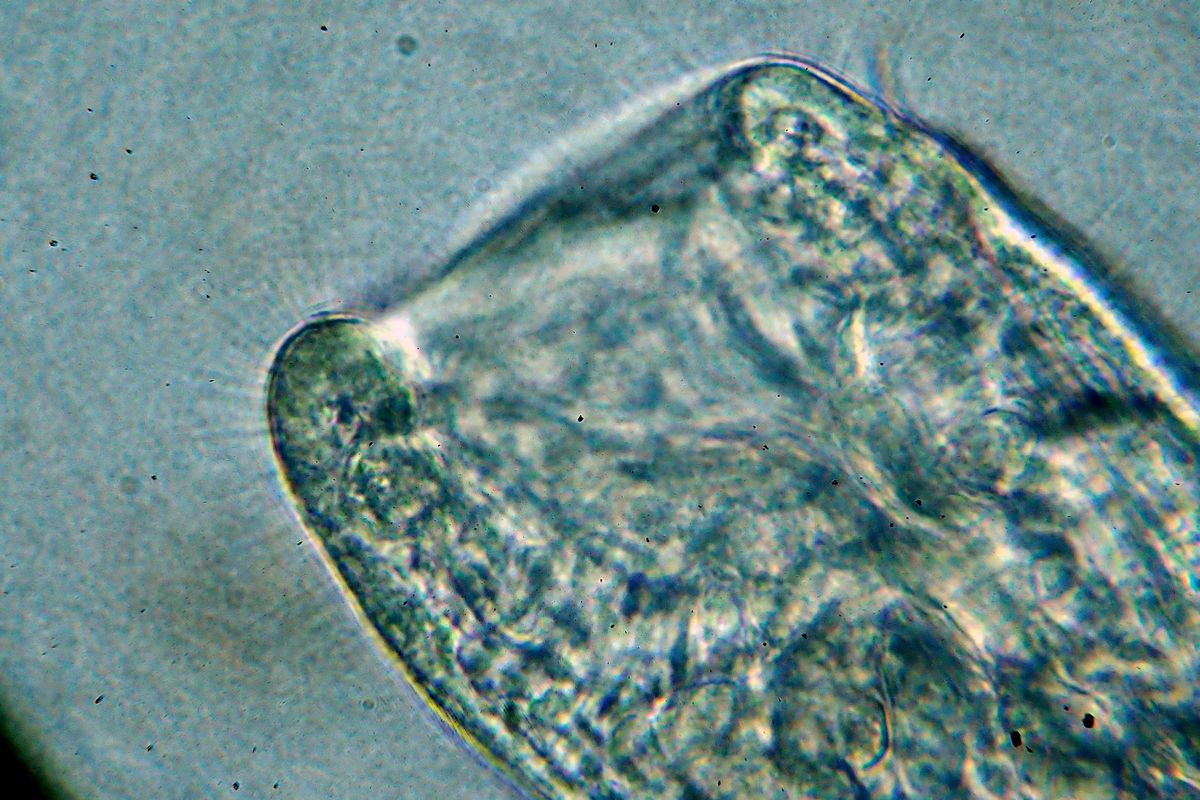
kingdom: Animalia
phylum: Annelida
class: Clitellata
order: Tubificida
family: Naididae
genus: Chaetogaster
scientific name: Chaetogaster langi
